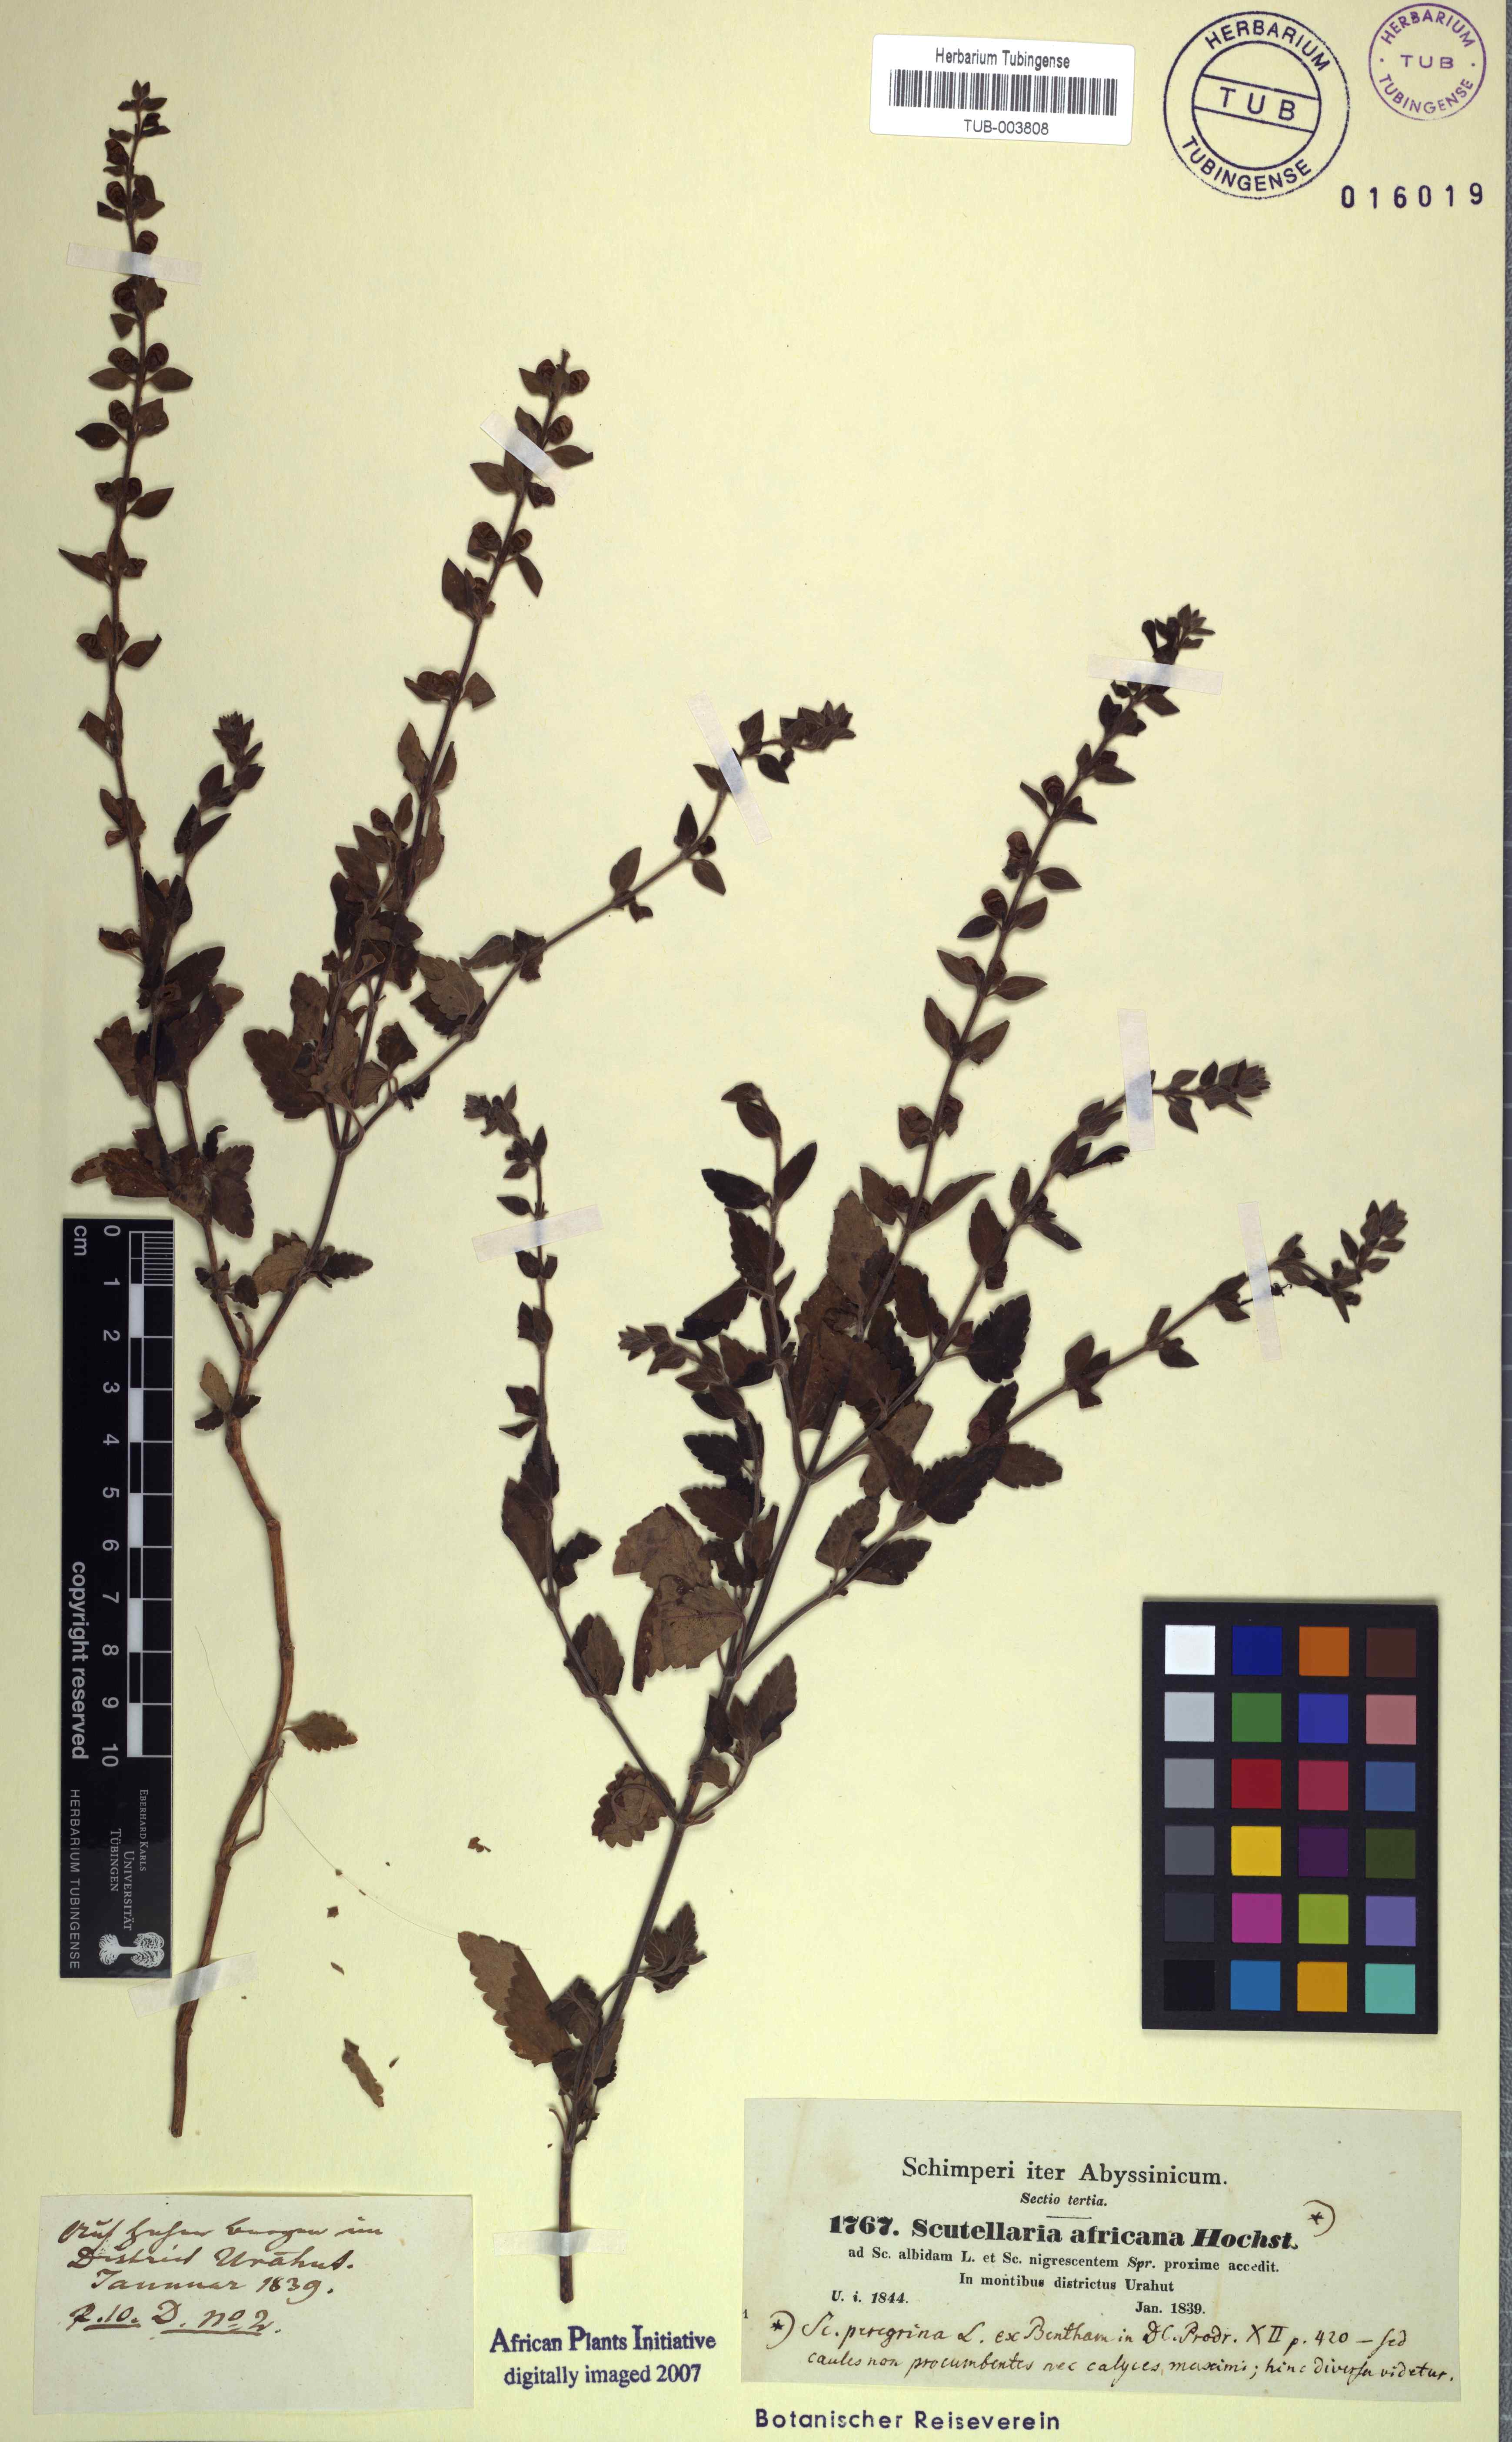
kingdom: Plantae
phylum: Tracheophyta
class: Magnoliopsida
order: Lamiales
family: Lamiaceae
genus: Scutellaria
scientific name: Scutellaria rubicunda
